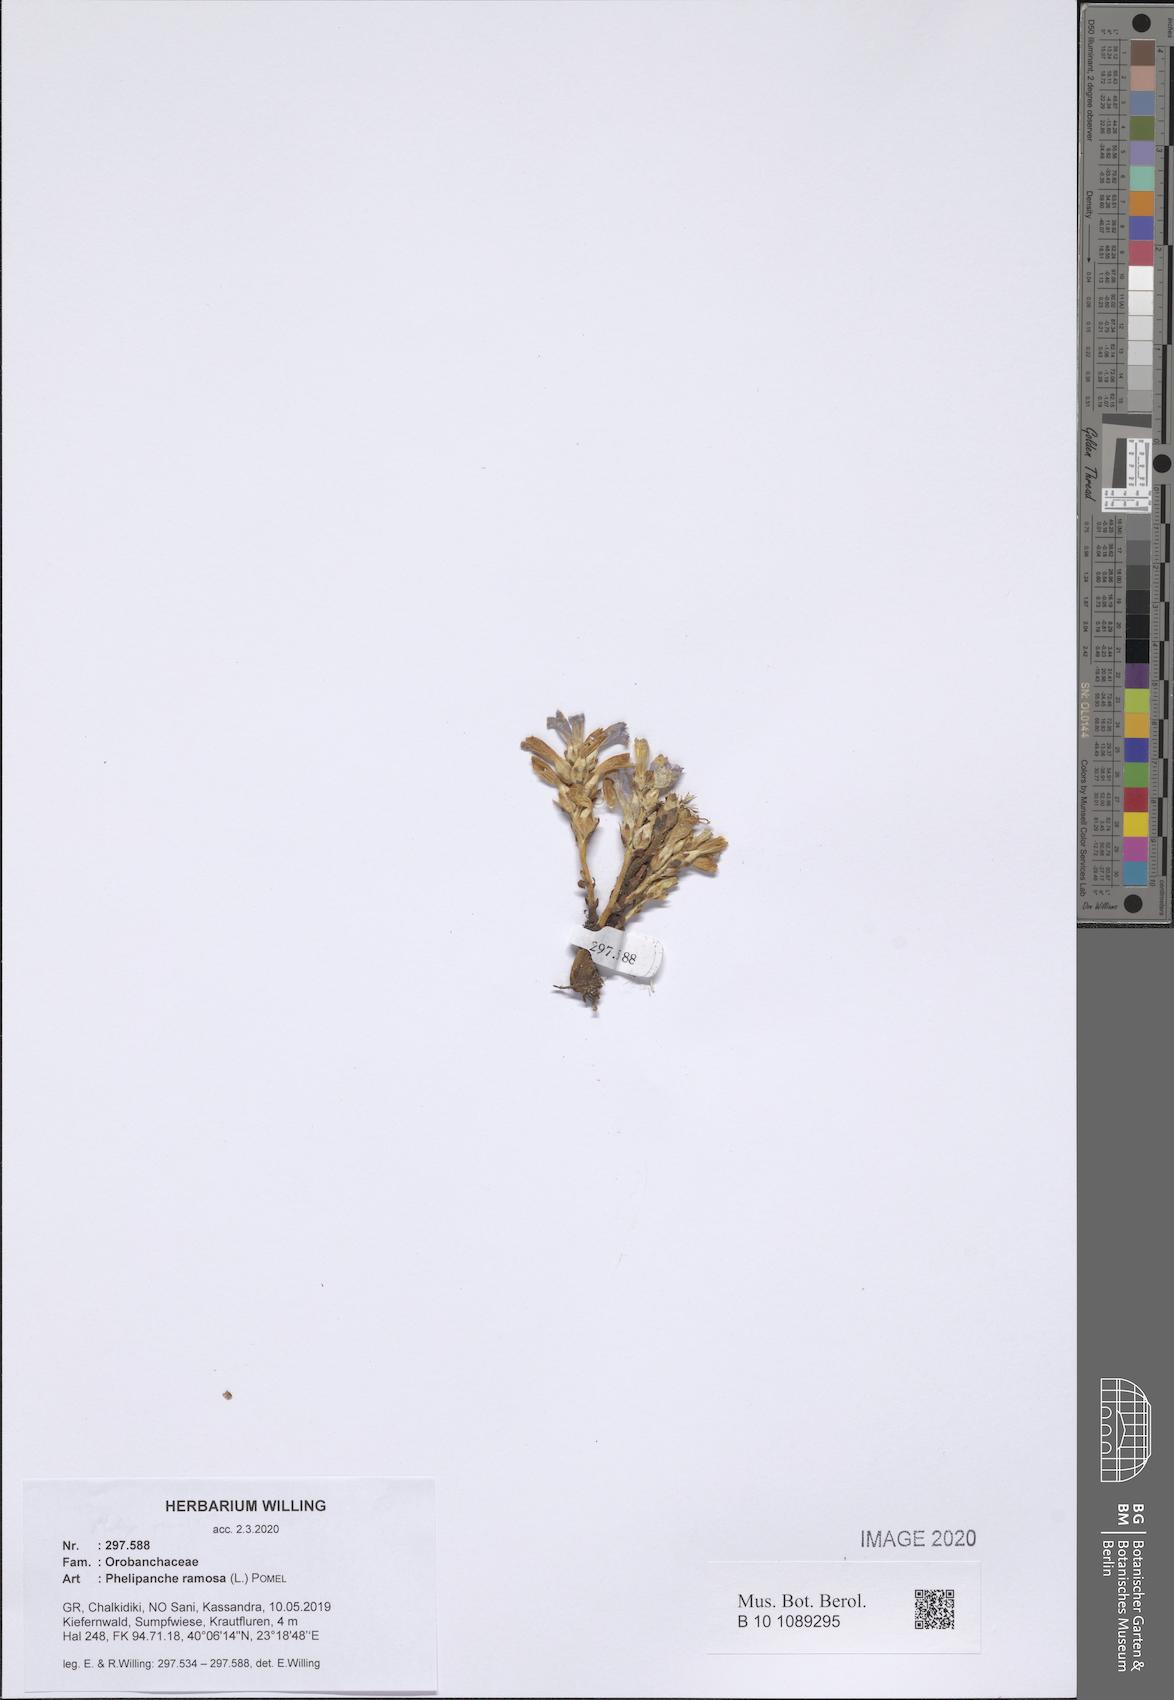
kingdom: Plantae
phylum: Tracheophyta
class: Magnoliopsida
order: Lamiales
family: Orobanchaceae
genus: Phelipanche
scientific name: Phelipanche ramosa
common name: Branched broomrape
